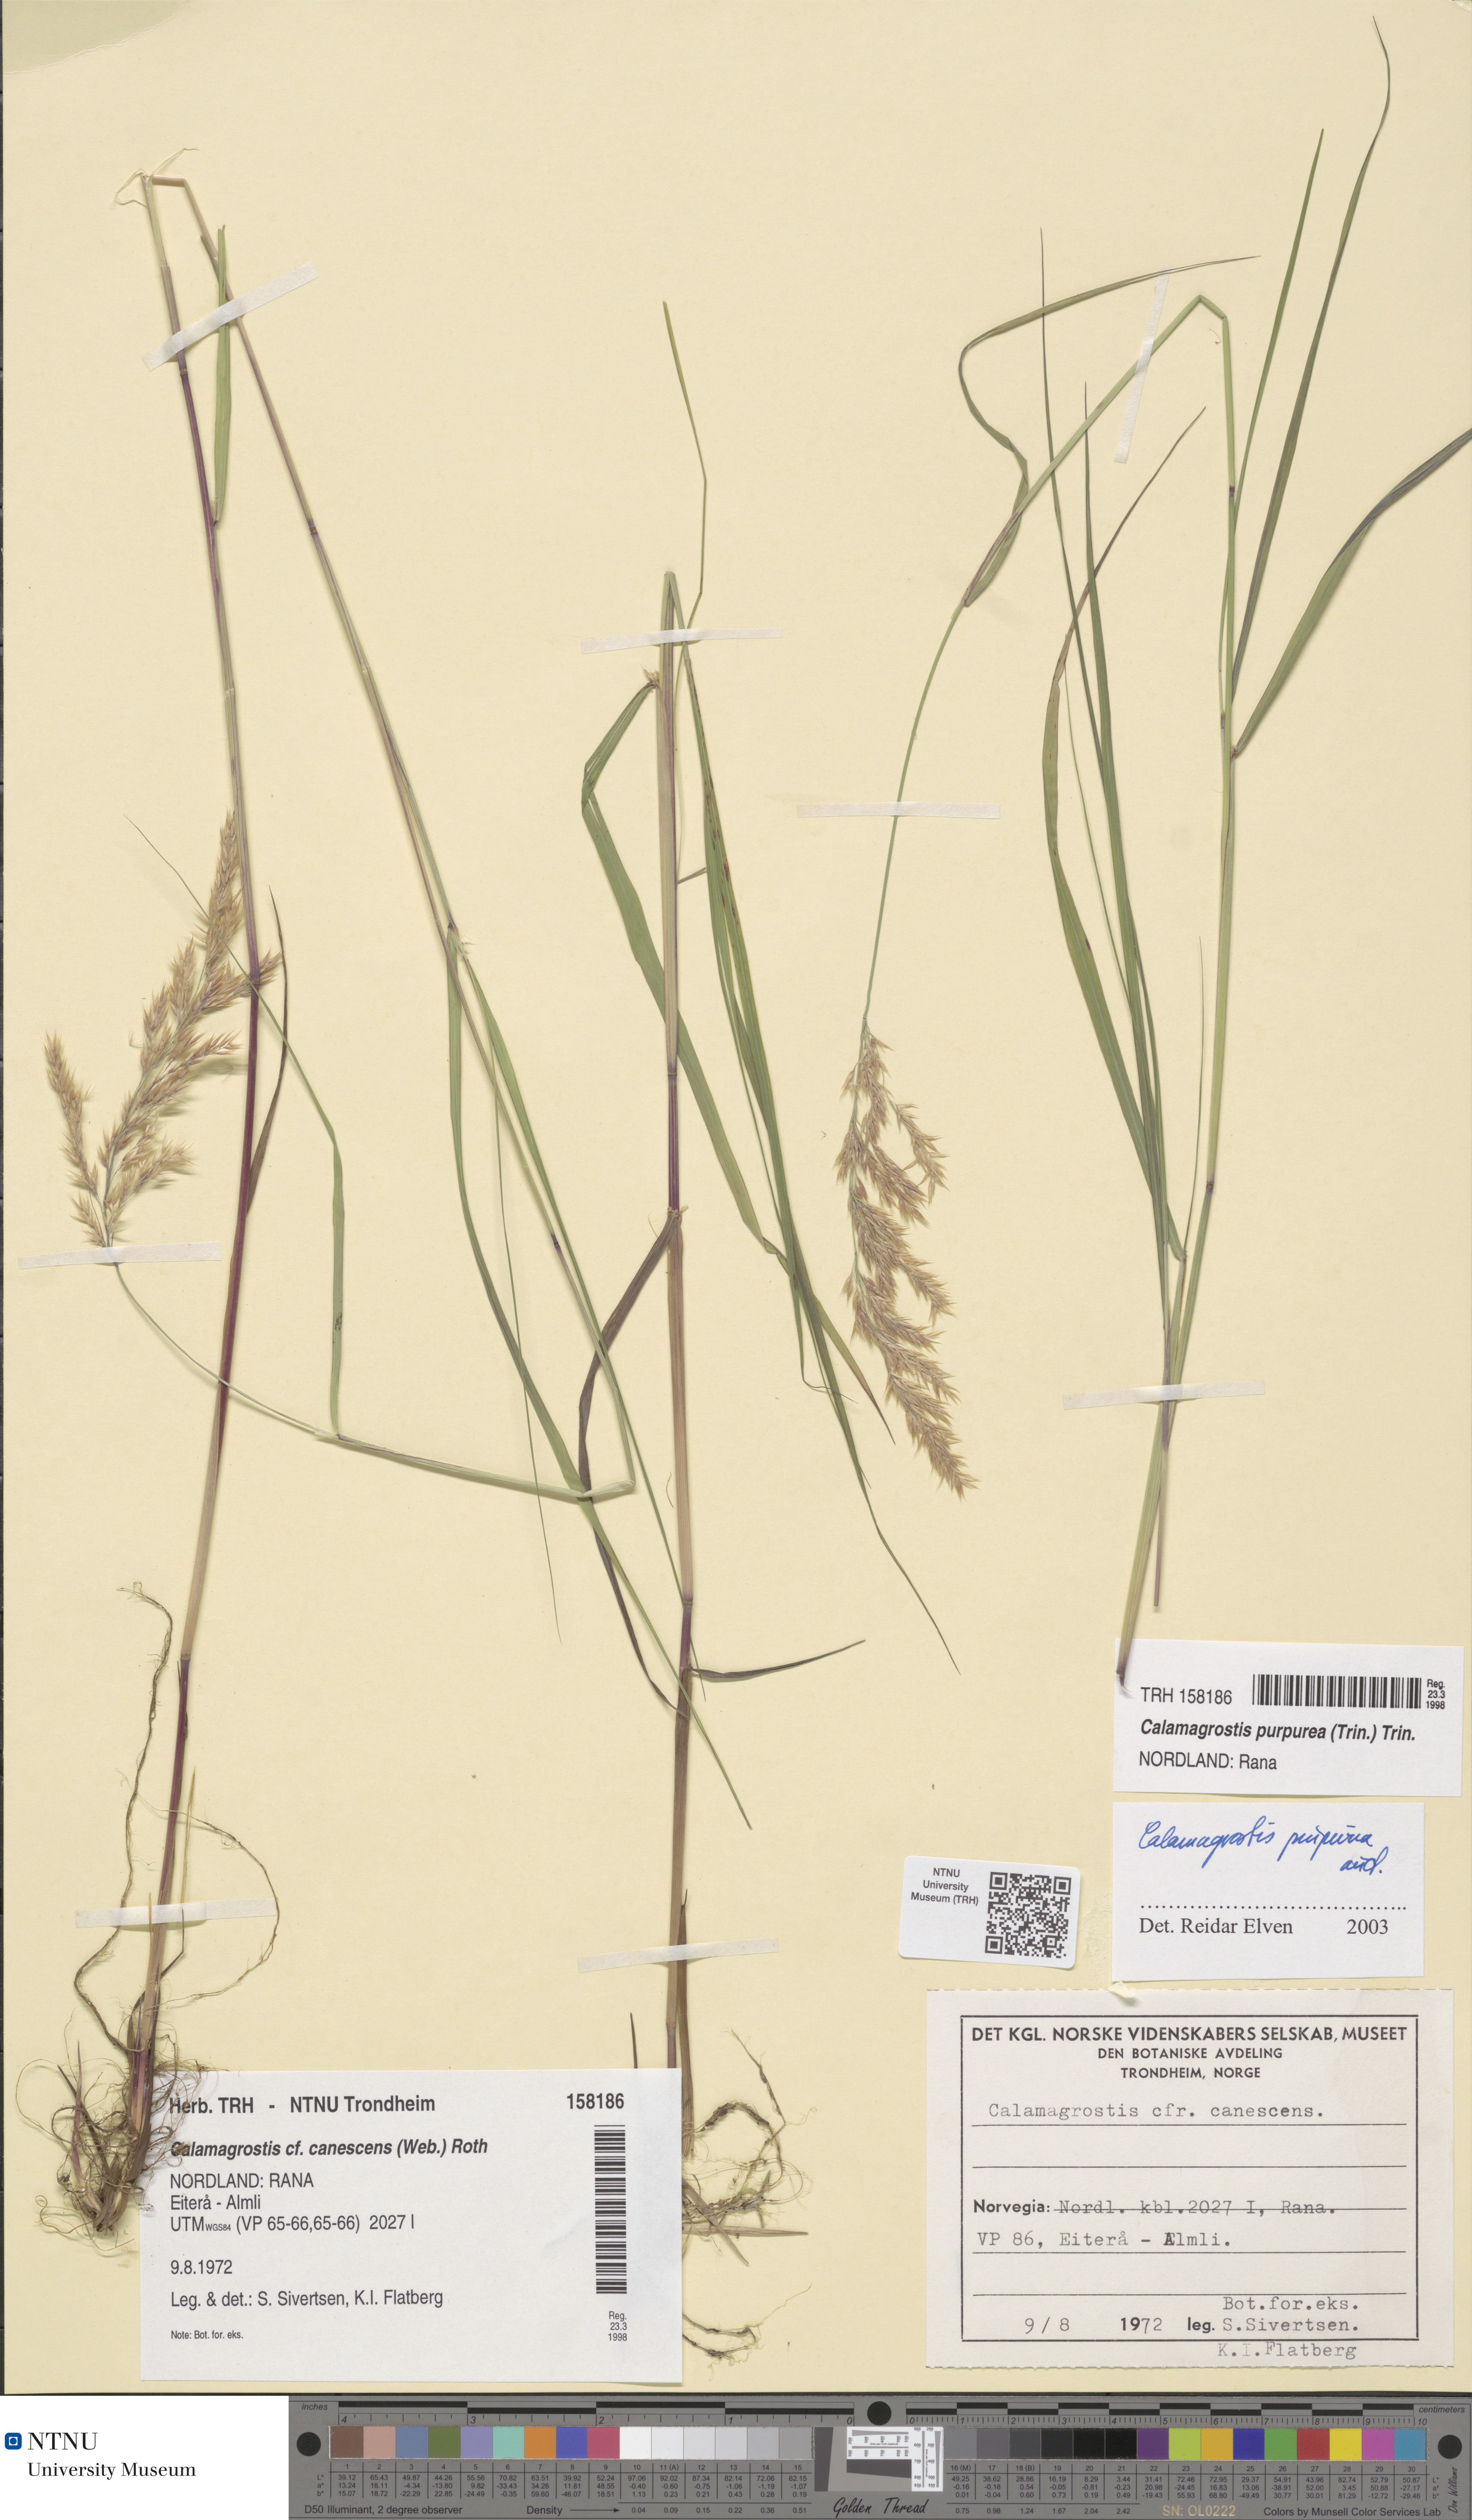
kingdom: Plantae
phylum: Tracheophyta
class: Liliopsida
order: Poales
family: Poaceae
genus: Calamagrostis
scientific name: Calamagrostis purpurea
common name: Scandinavian small-reed
